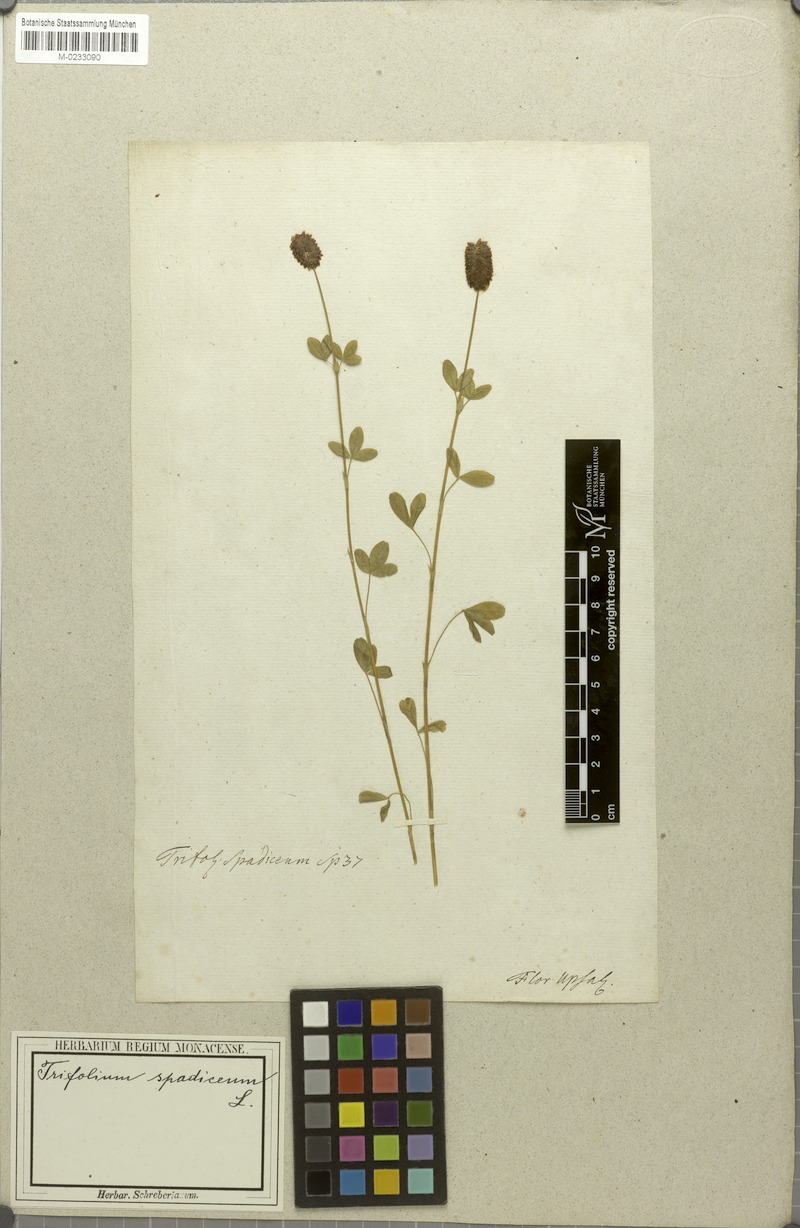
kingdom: Plantae
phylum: Tracheophyta
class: Magnoliopsida
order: Fabales
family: Fabaceae
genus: Trifolium
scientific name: Trifolium spadiceum
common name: Brown moor clover
